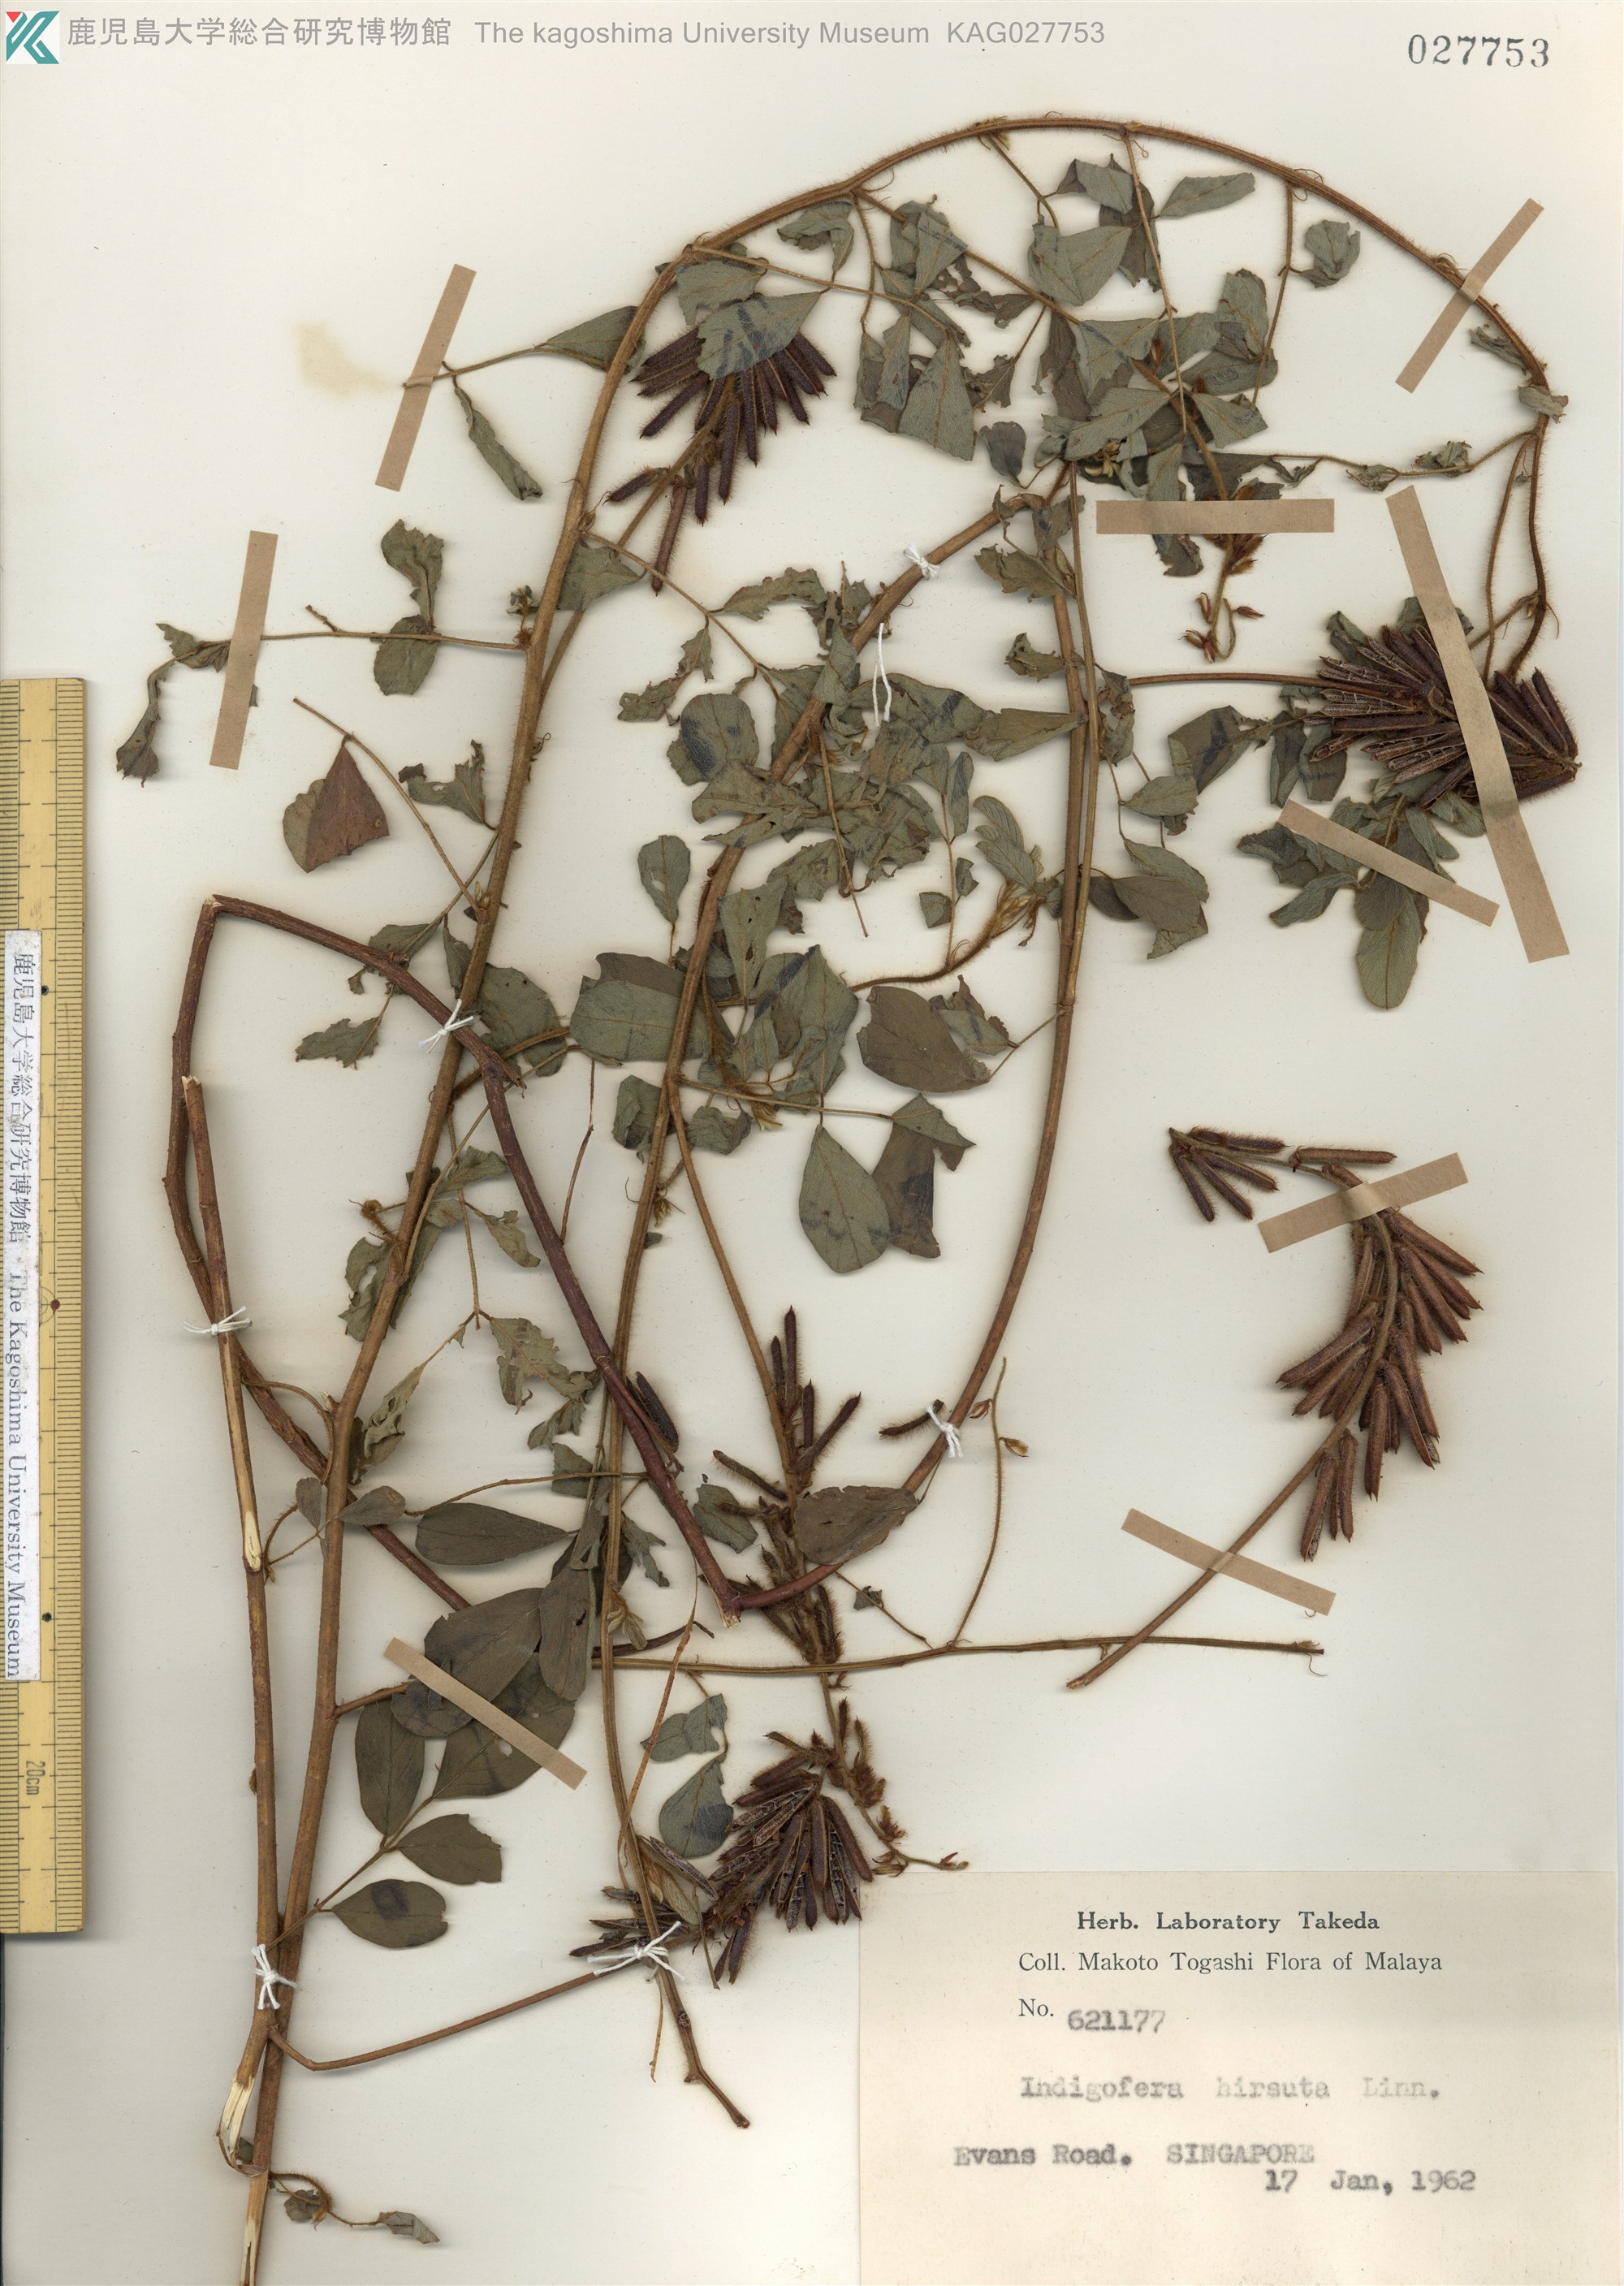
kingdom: Plantae
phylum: Tracheophyta
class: Magnoliopsida
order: Fabales
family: Fabaceae
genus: Indigofera
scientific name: Indigofera hirsuta
